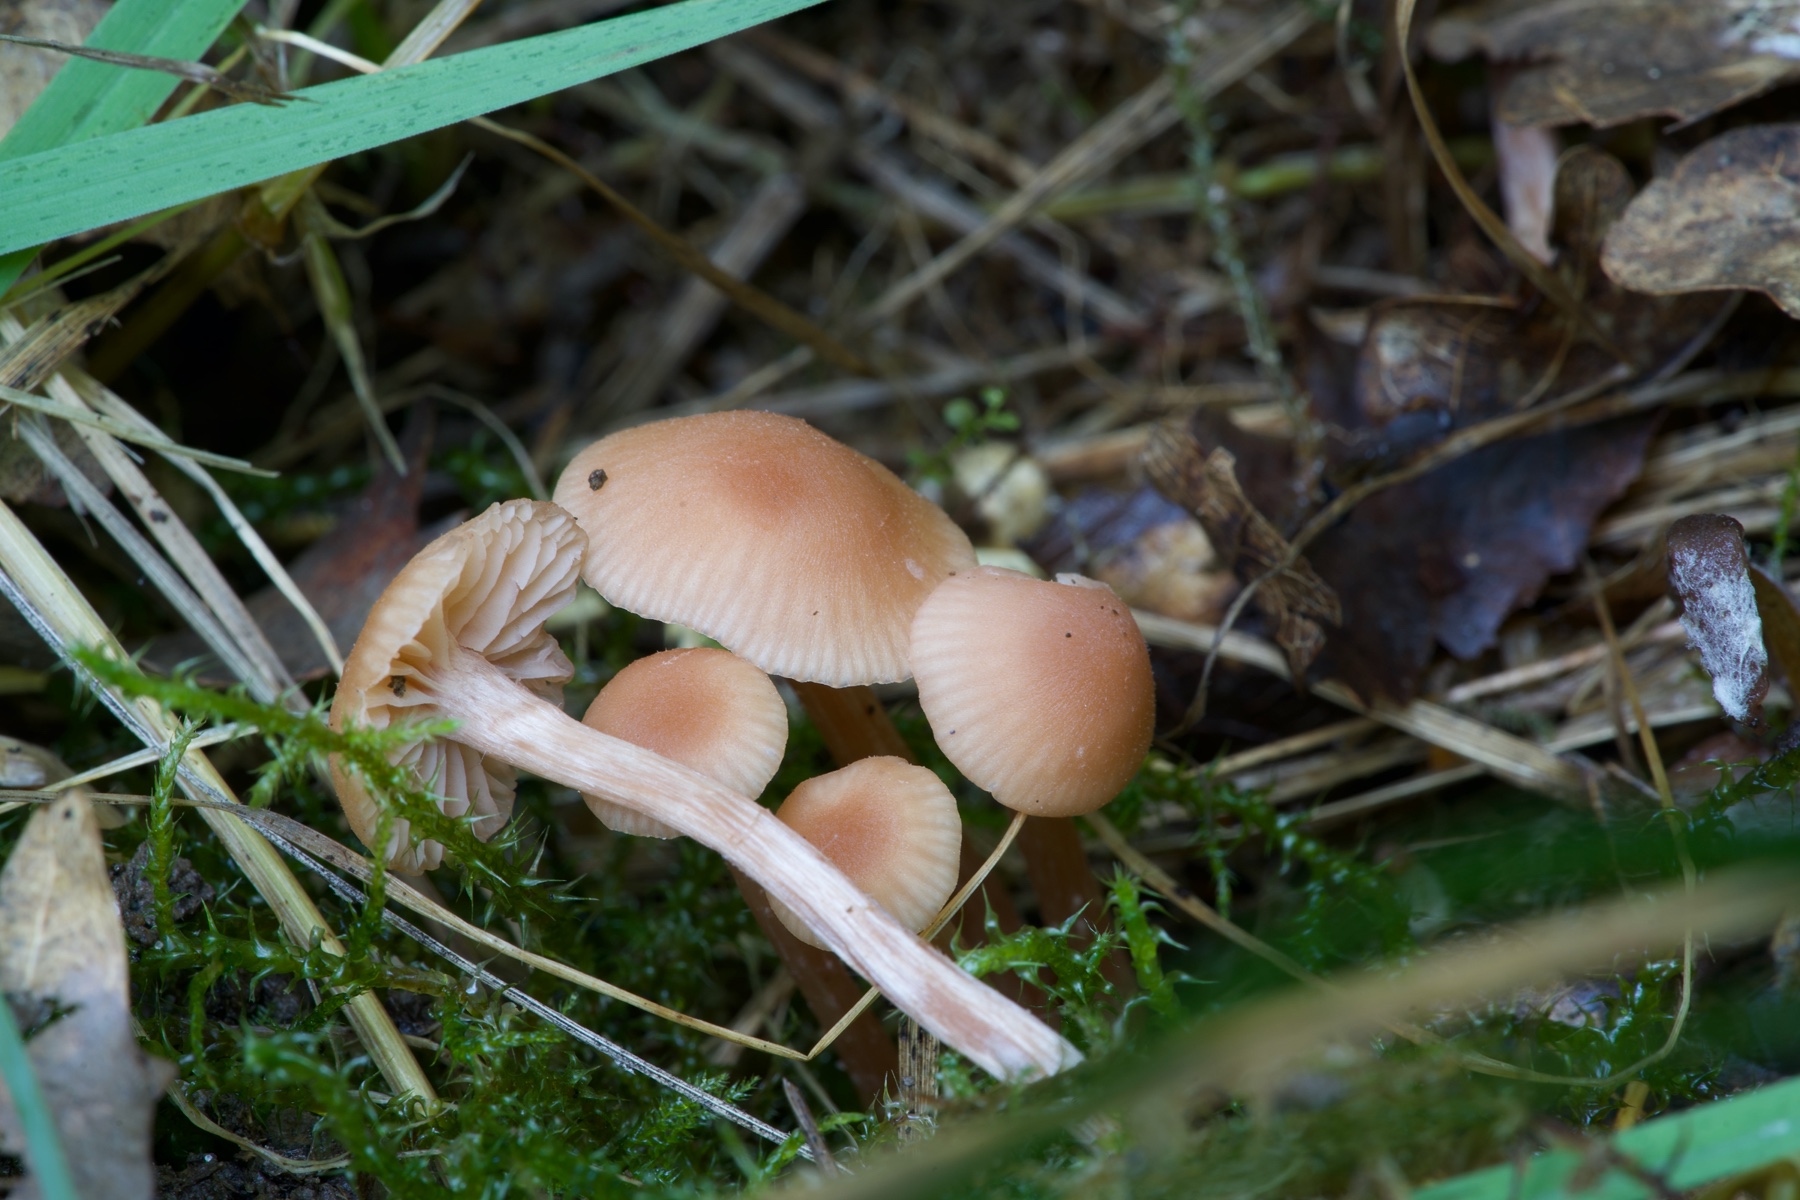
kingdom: Fungi
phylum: Basidiomycota
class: Agaricomycetes
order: Agaricales
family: Hydnangiaceae
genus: Laccaria
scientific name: Laccaria laccata
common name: rød ametysthat
